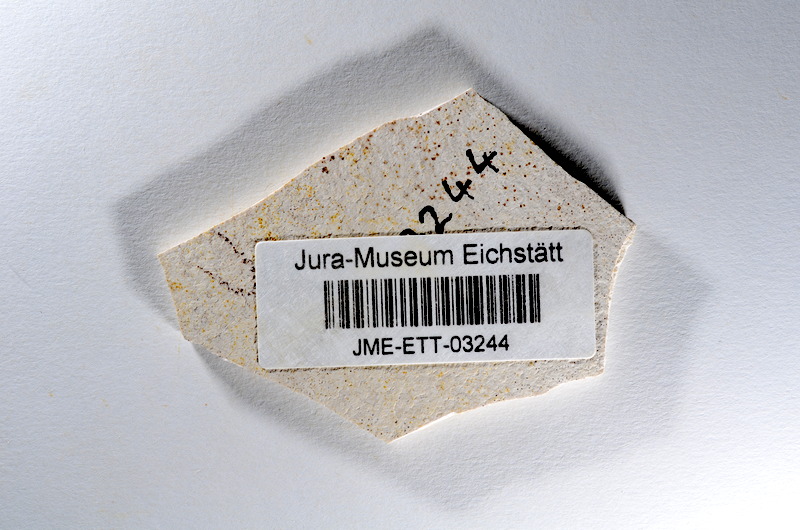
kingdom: Animalia
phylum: Chordata
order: Salmoniformes
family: Orthogonikleithridae
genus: Orthogonikleithrus
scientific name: Orthogonikleithrus hoelli
